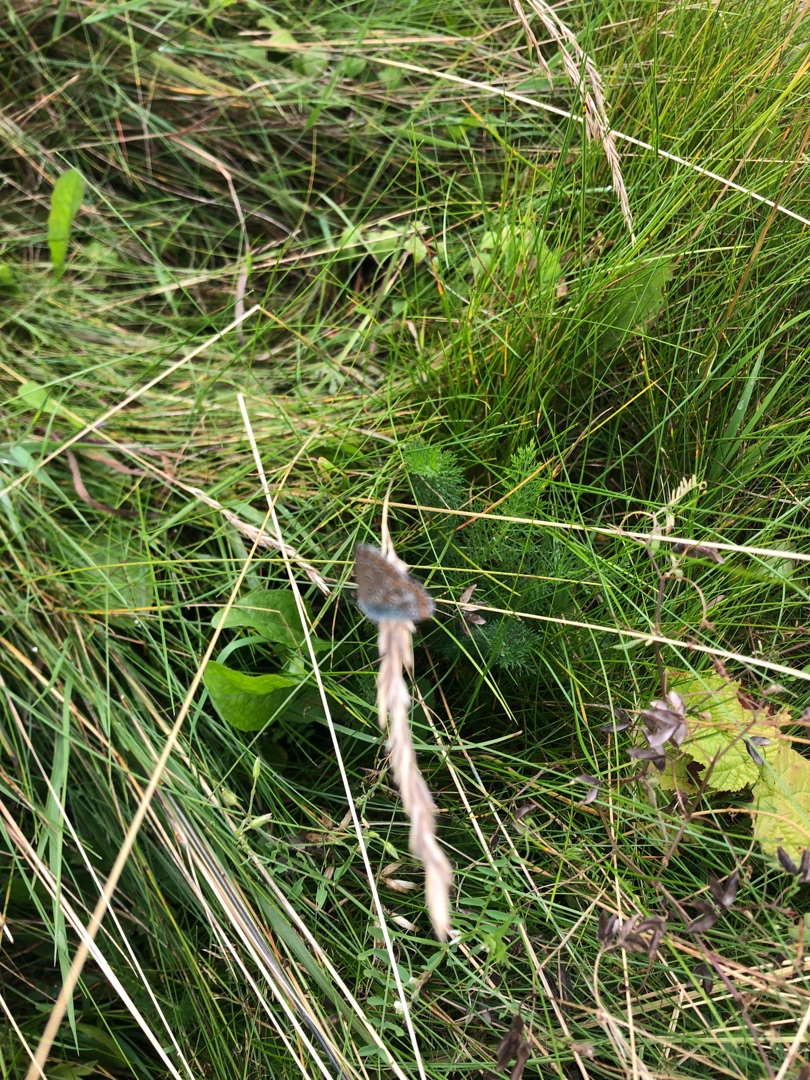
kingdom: Animalia
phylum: Arthropoda
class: Insecta
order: Lepidoptera
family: Lycaenidae
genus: Polyommatus
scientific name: Polyommatus icarus
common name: Almindelig blåfugl
